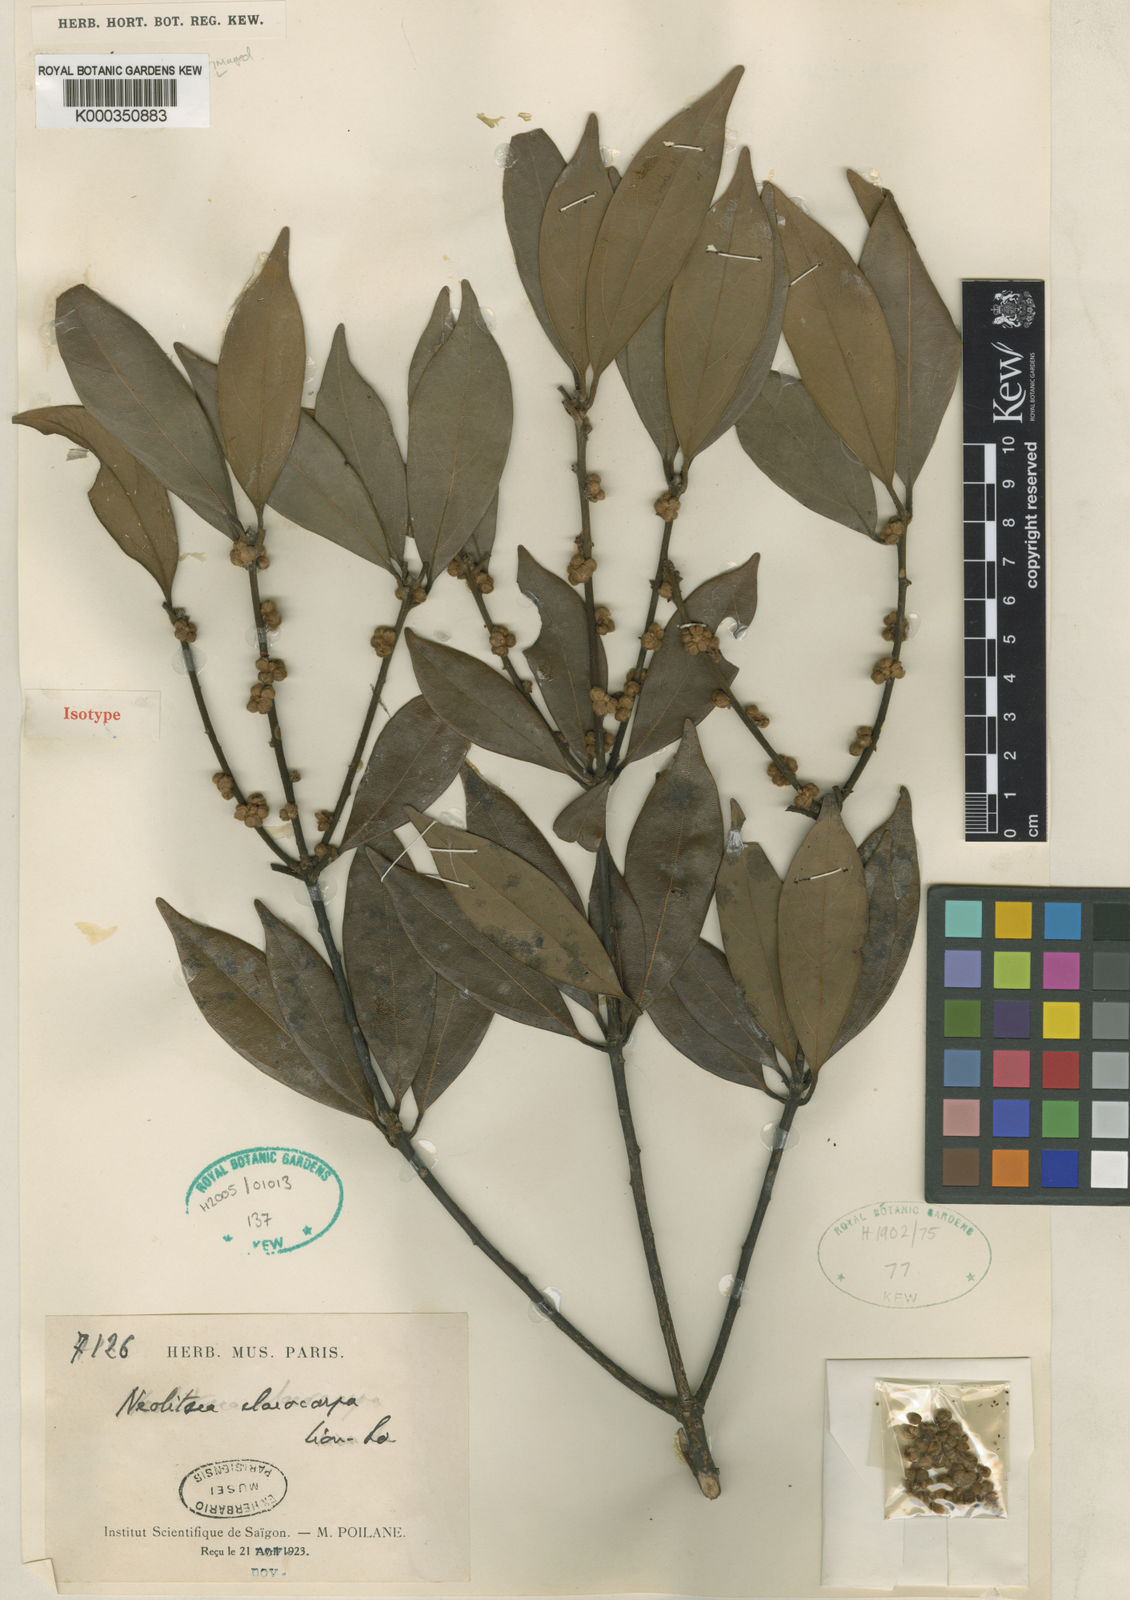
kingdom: Plantae
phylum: Tracheophyta
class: Magnoliopsida
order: Laurales
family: Lauraceae
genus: Neolitsea
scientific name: Neolitsea elaeocarpa
